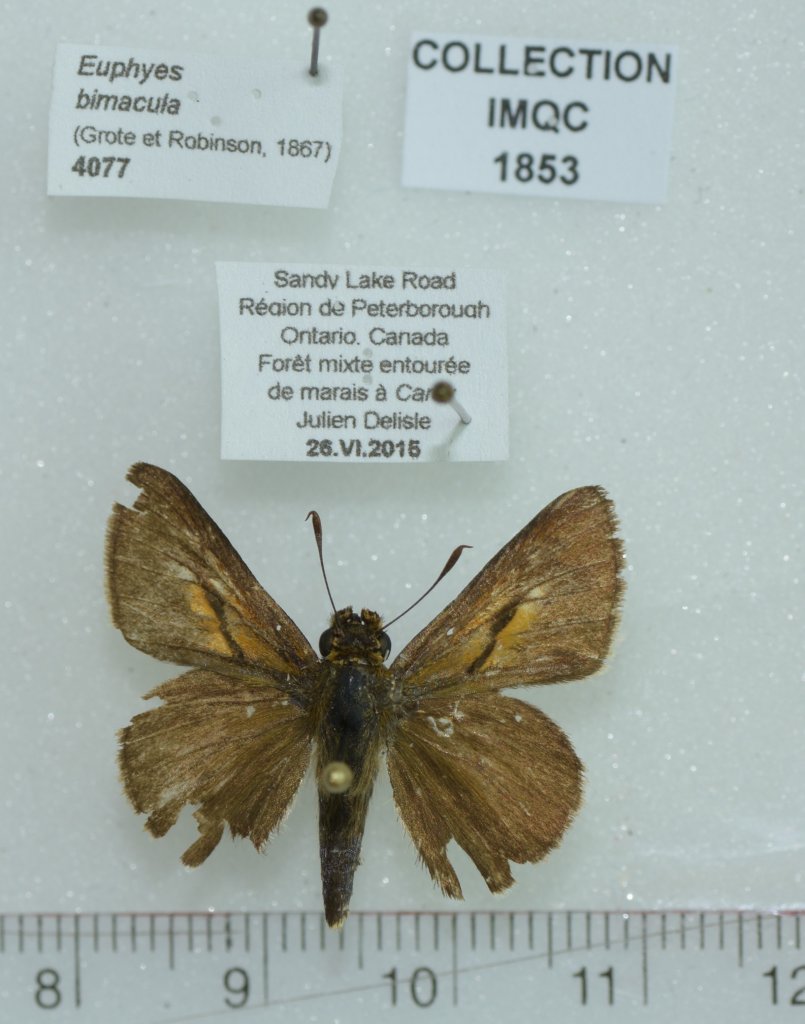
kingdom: Animalia
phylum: Arthropoda
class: Insecta
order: Lepidoptera
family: Hesperiidae
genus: Euphyes
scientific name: Euphyes bimacula
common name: Two-spotted Skipper
